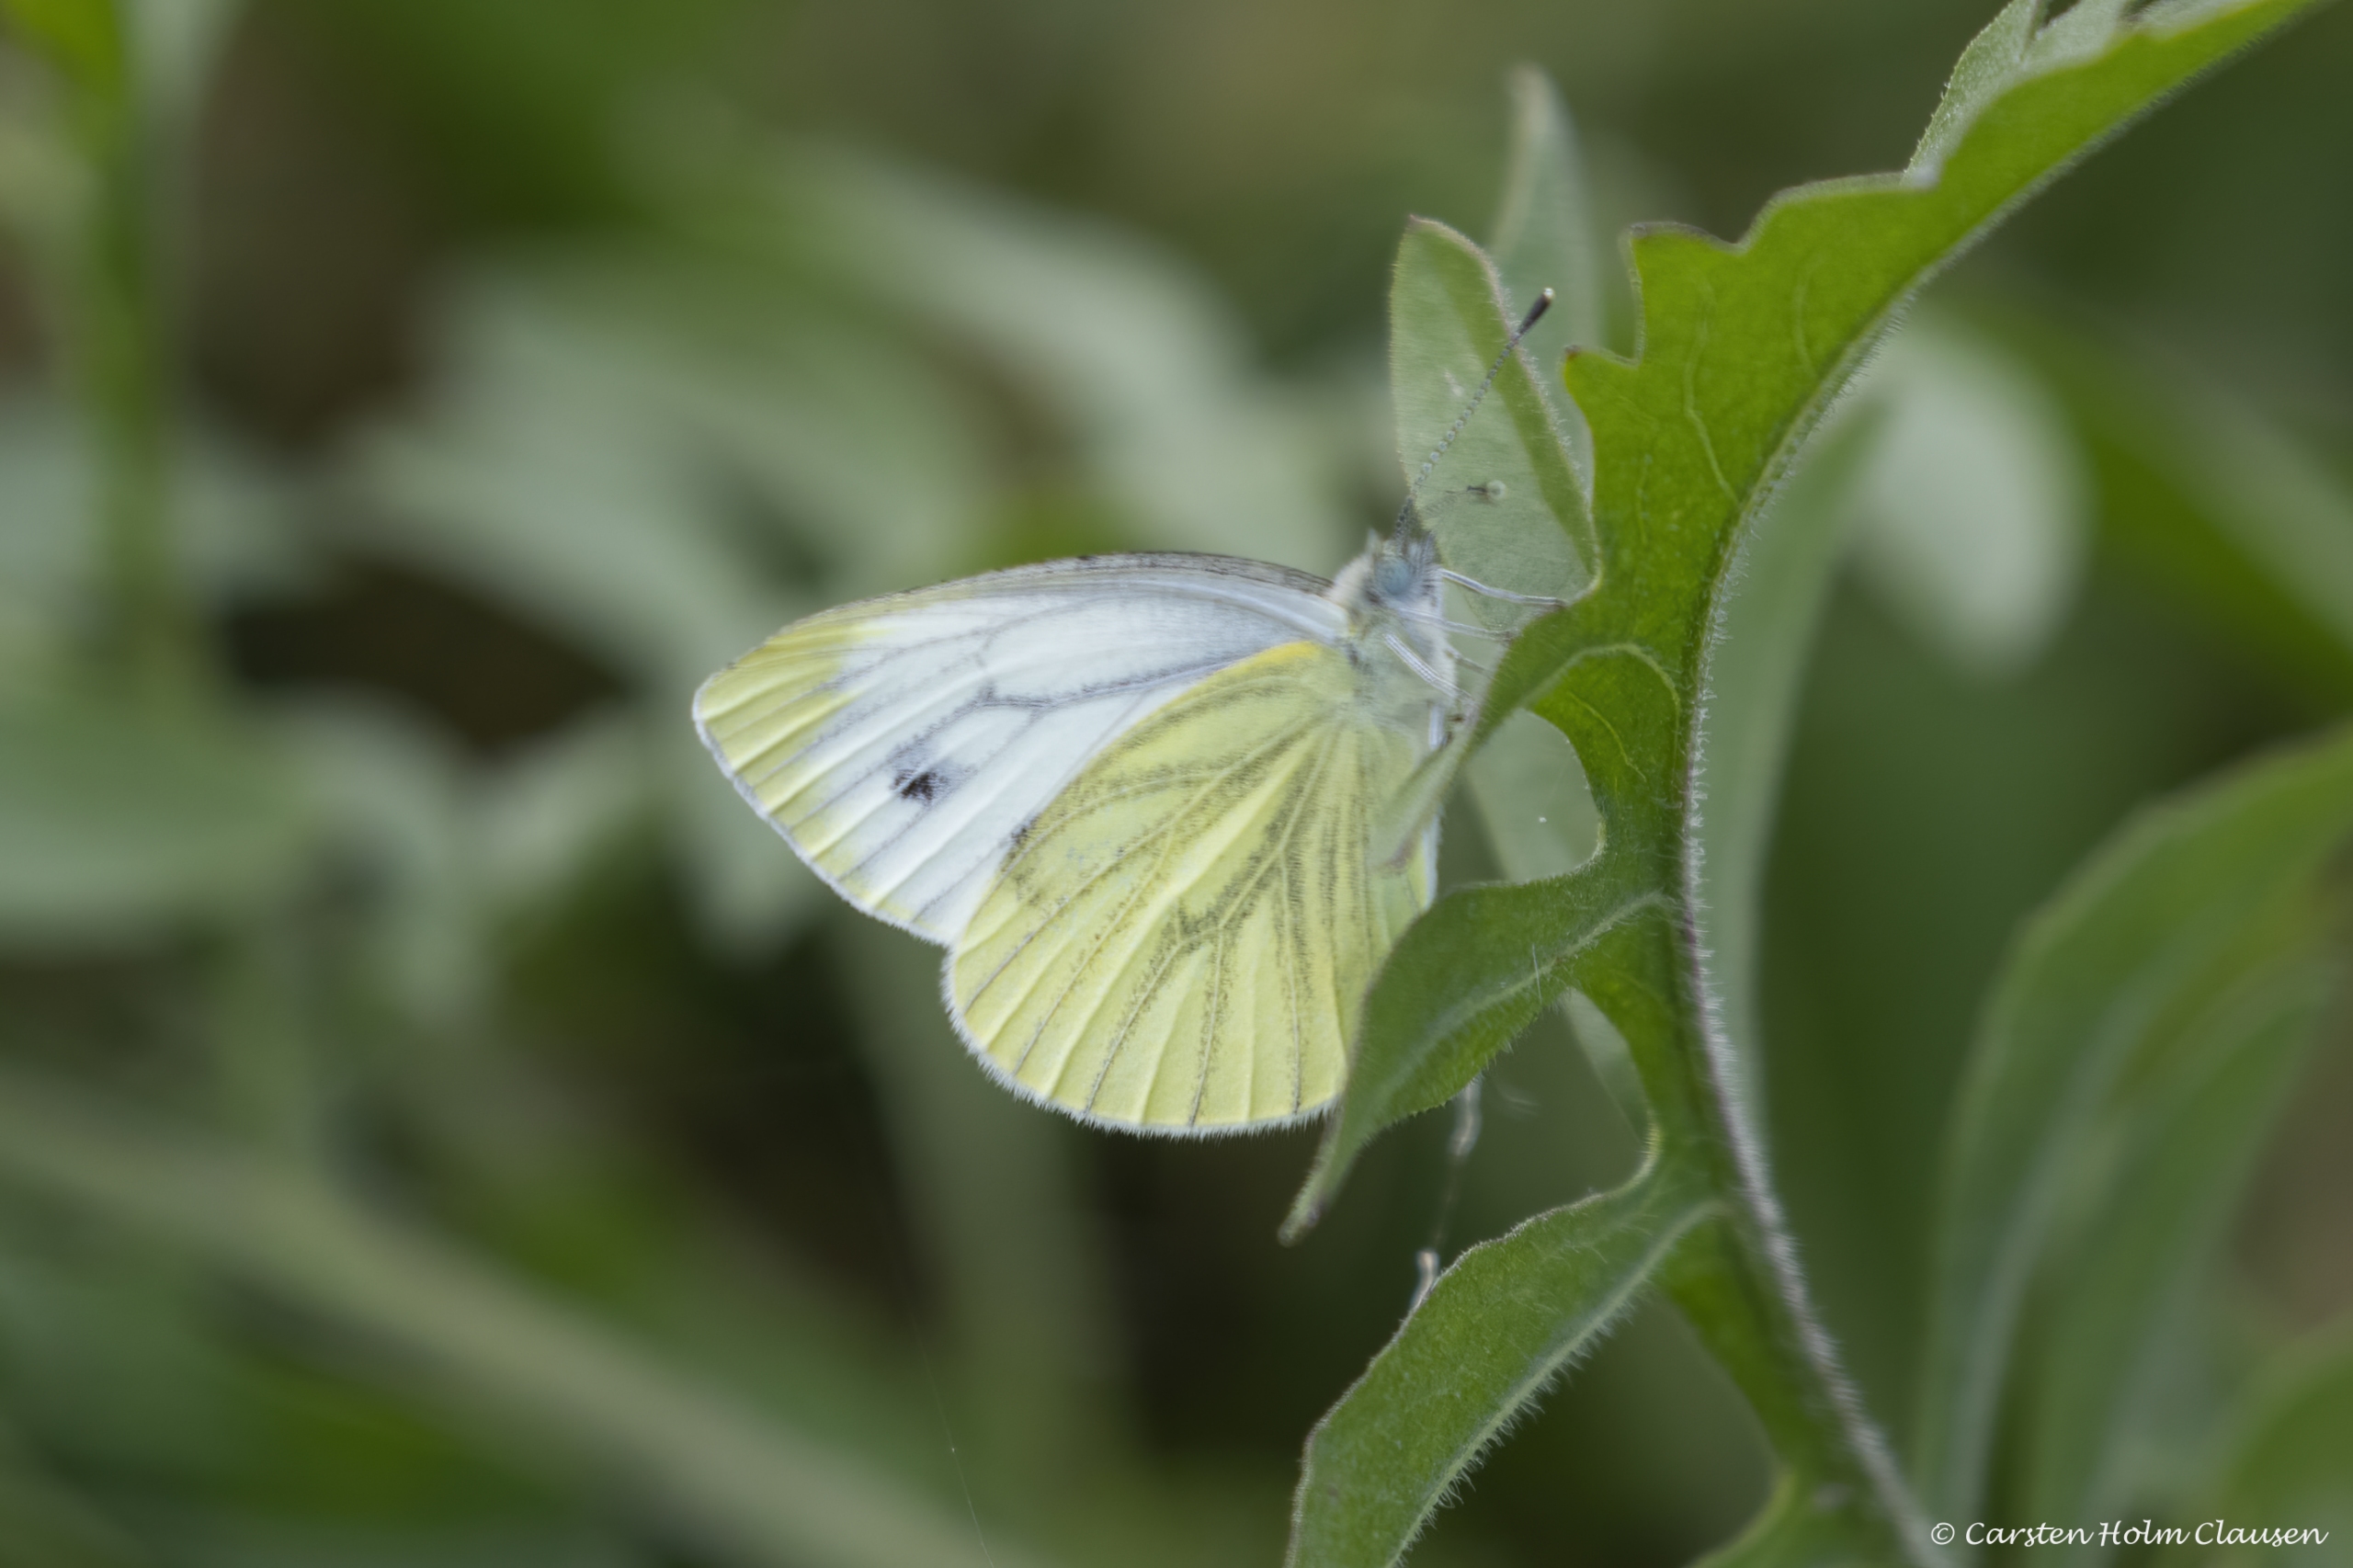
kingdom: Animalia
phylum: Arthropoda
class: Insecta
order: Lepidoptera
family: Pieridae
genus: Pieris
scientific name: Pieris napi
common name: Grønåret kålsommerfugl
